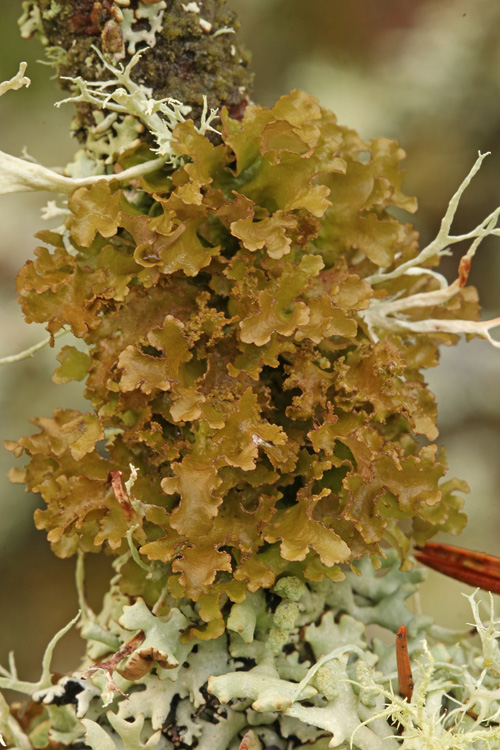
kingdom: Fungi
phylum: Ascomycota
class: Lecanoromycetes
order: Lecanorales
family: Parmeliaceae
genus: Nephromopsis
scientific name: Nephromopsis chlorophylla
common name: olivenbrun kruslav
